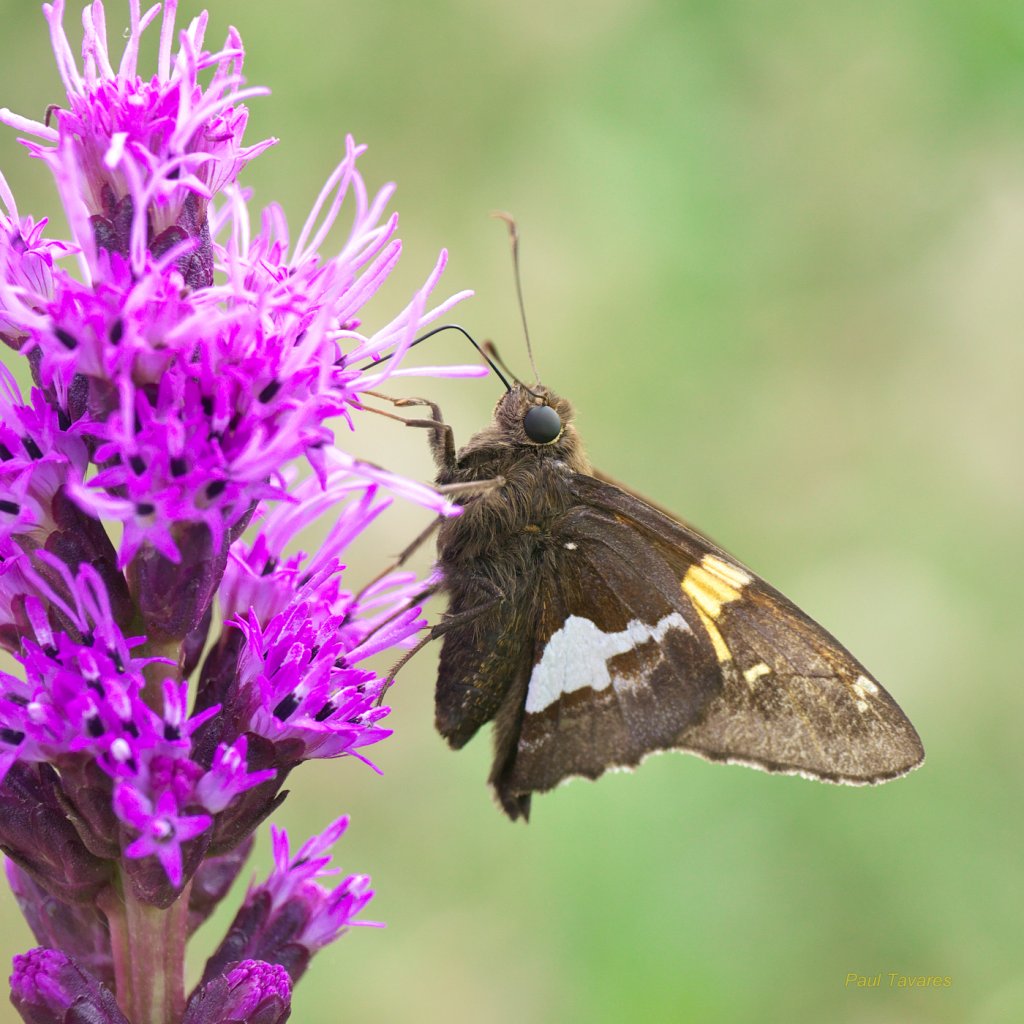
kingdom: Animalia
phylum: Arthropoda
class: Insecta
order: Lepidoptera
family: Hesperiidae
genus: Epargyreus
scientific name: Epargyreus clarus
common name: Silver-spotted Skipper
